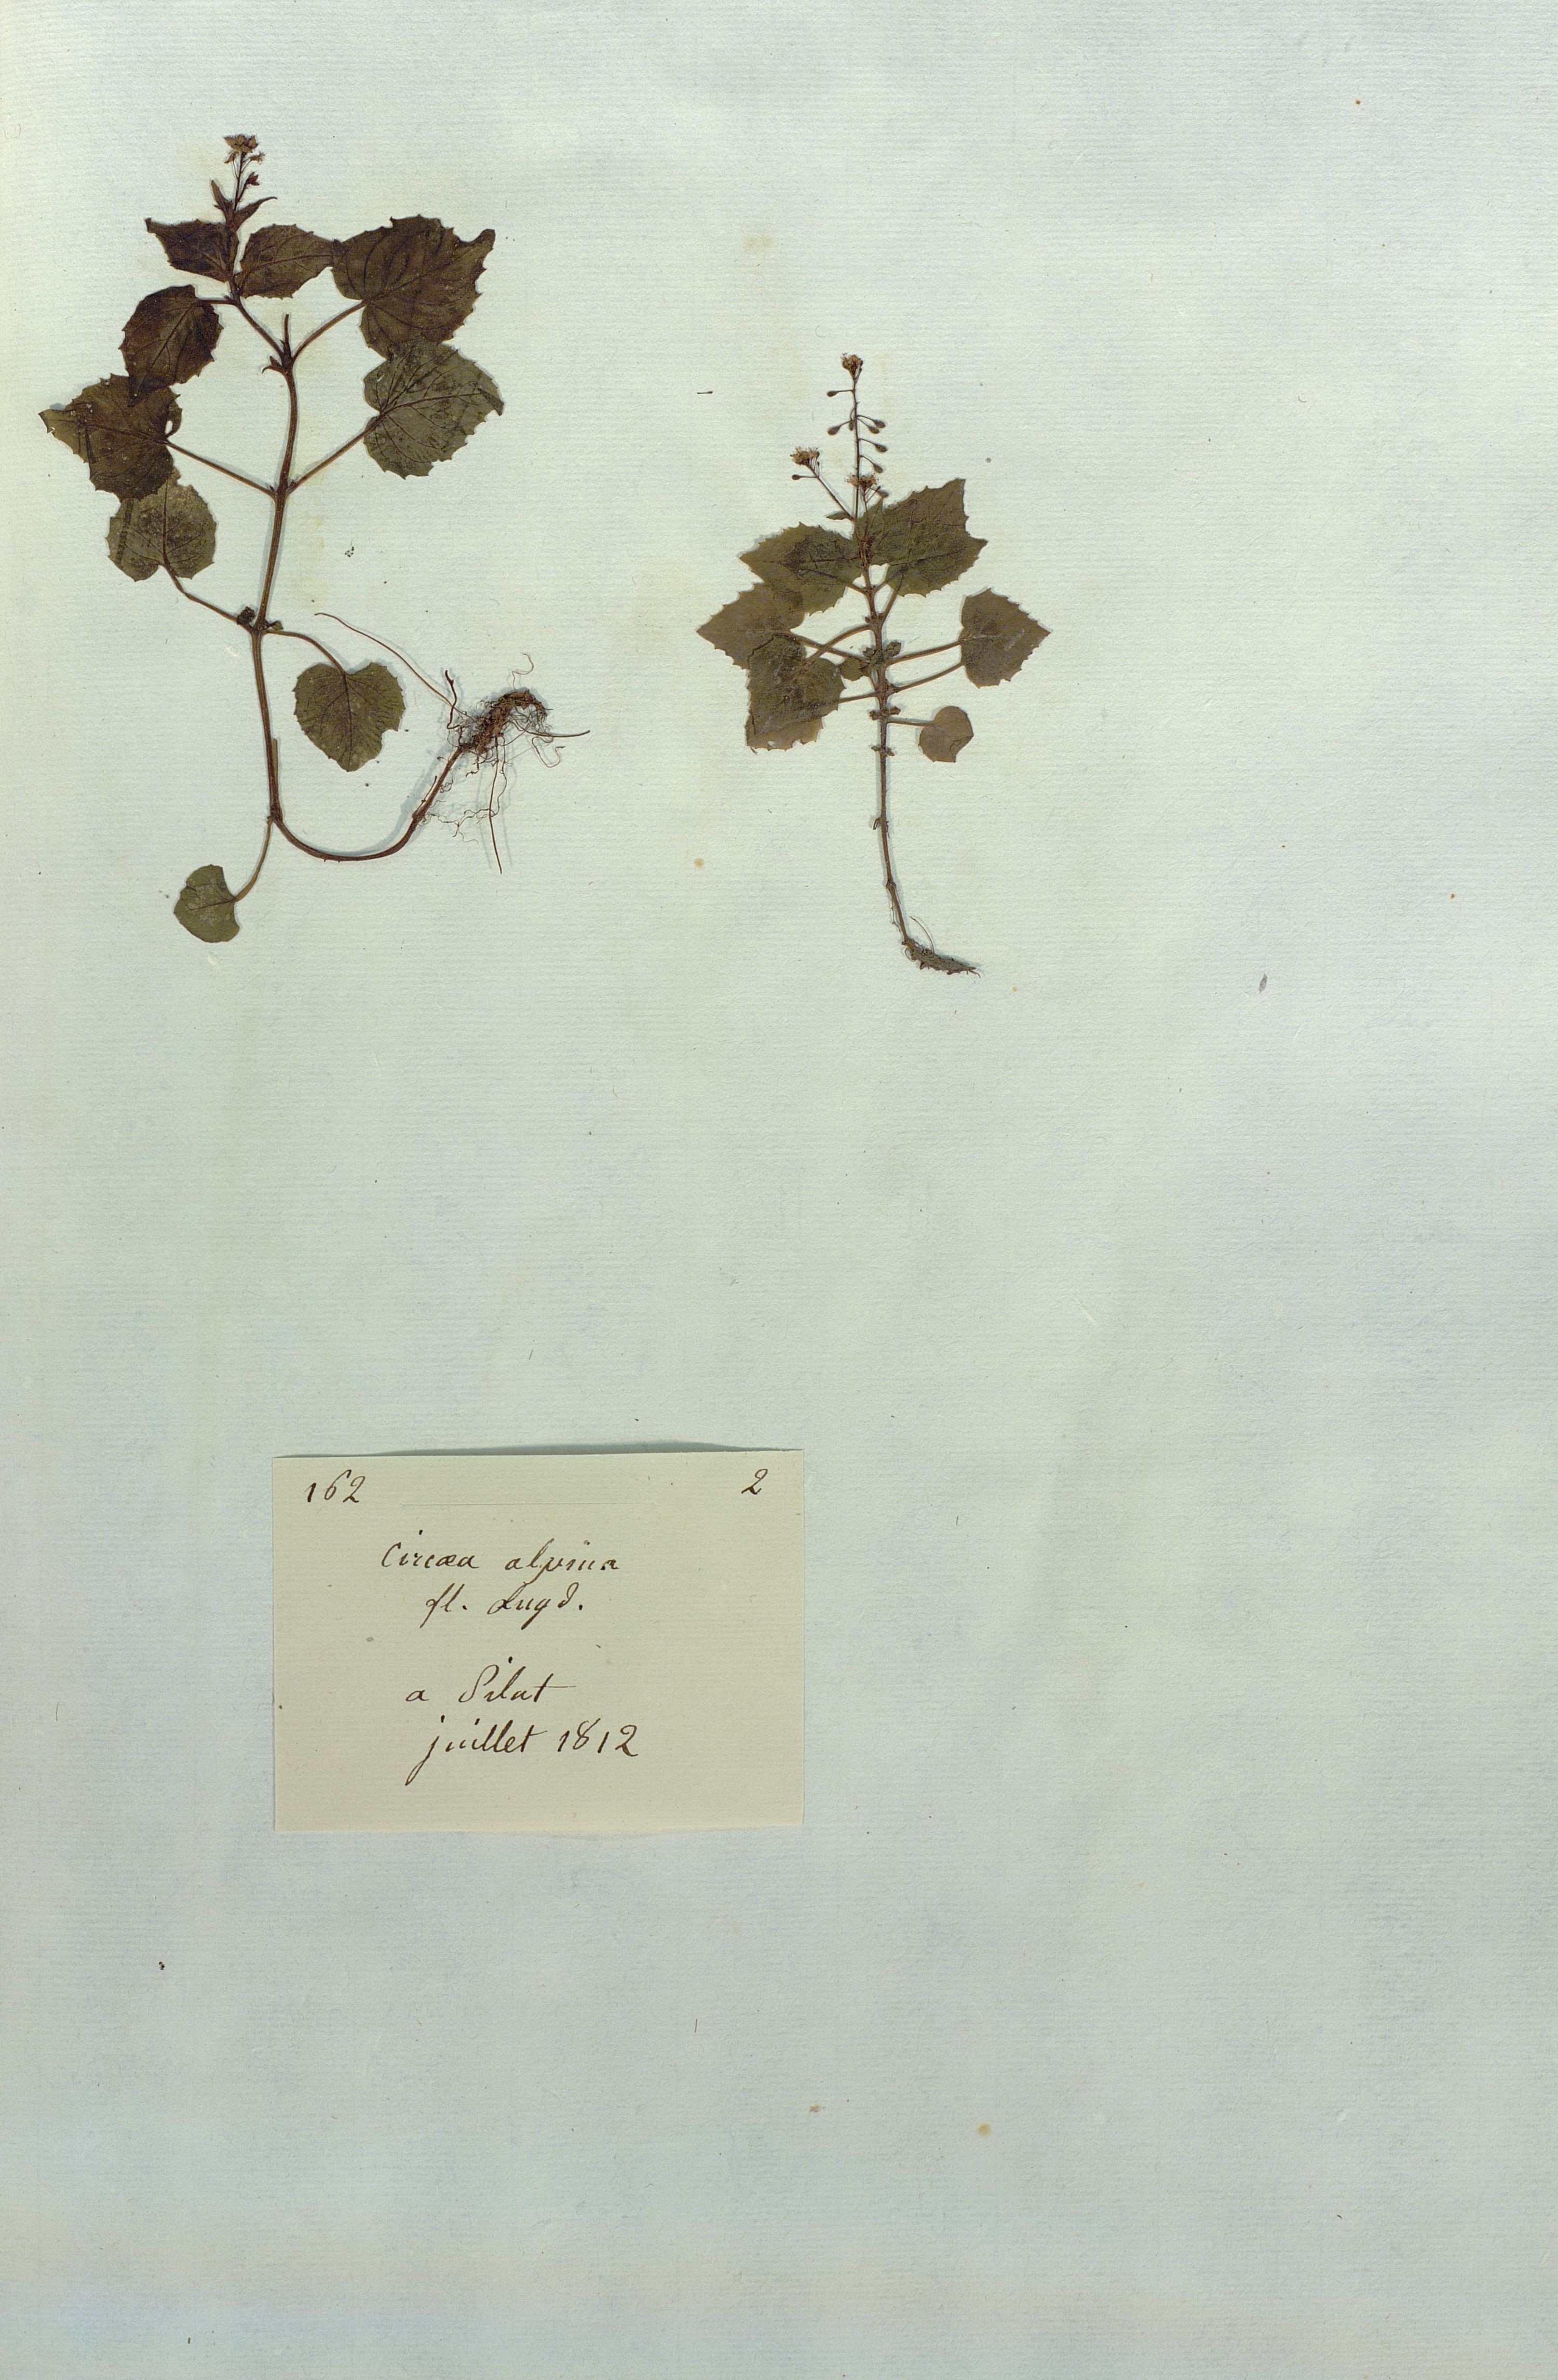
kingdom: Plantae
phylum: Tracheophyta
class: Magnoliopsida
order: Myrtales
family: Onagraceae
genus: Circaea
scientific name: Circaea alpina
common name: Alpine enchanter's-nightshade
